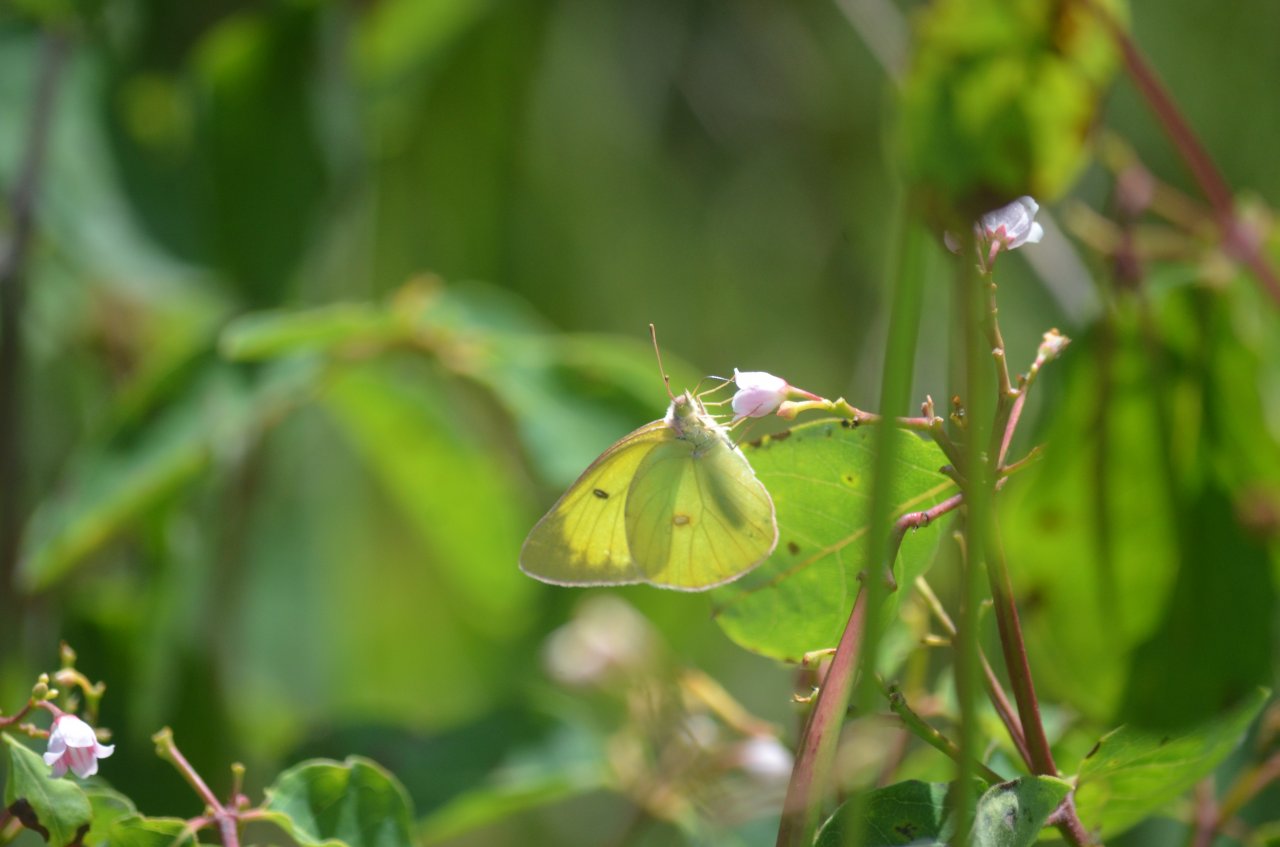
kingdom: Animalia
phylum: Arthropoda
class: Insecta
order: Lepidoptera
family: Pieridae
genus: Colias
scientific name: Colias interior
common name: Pink-edged Sulphur
